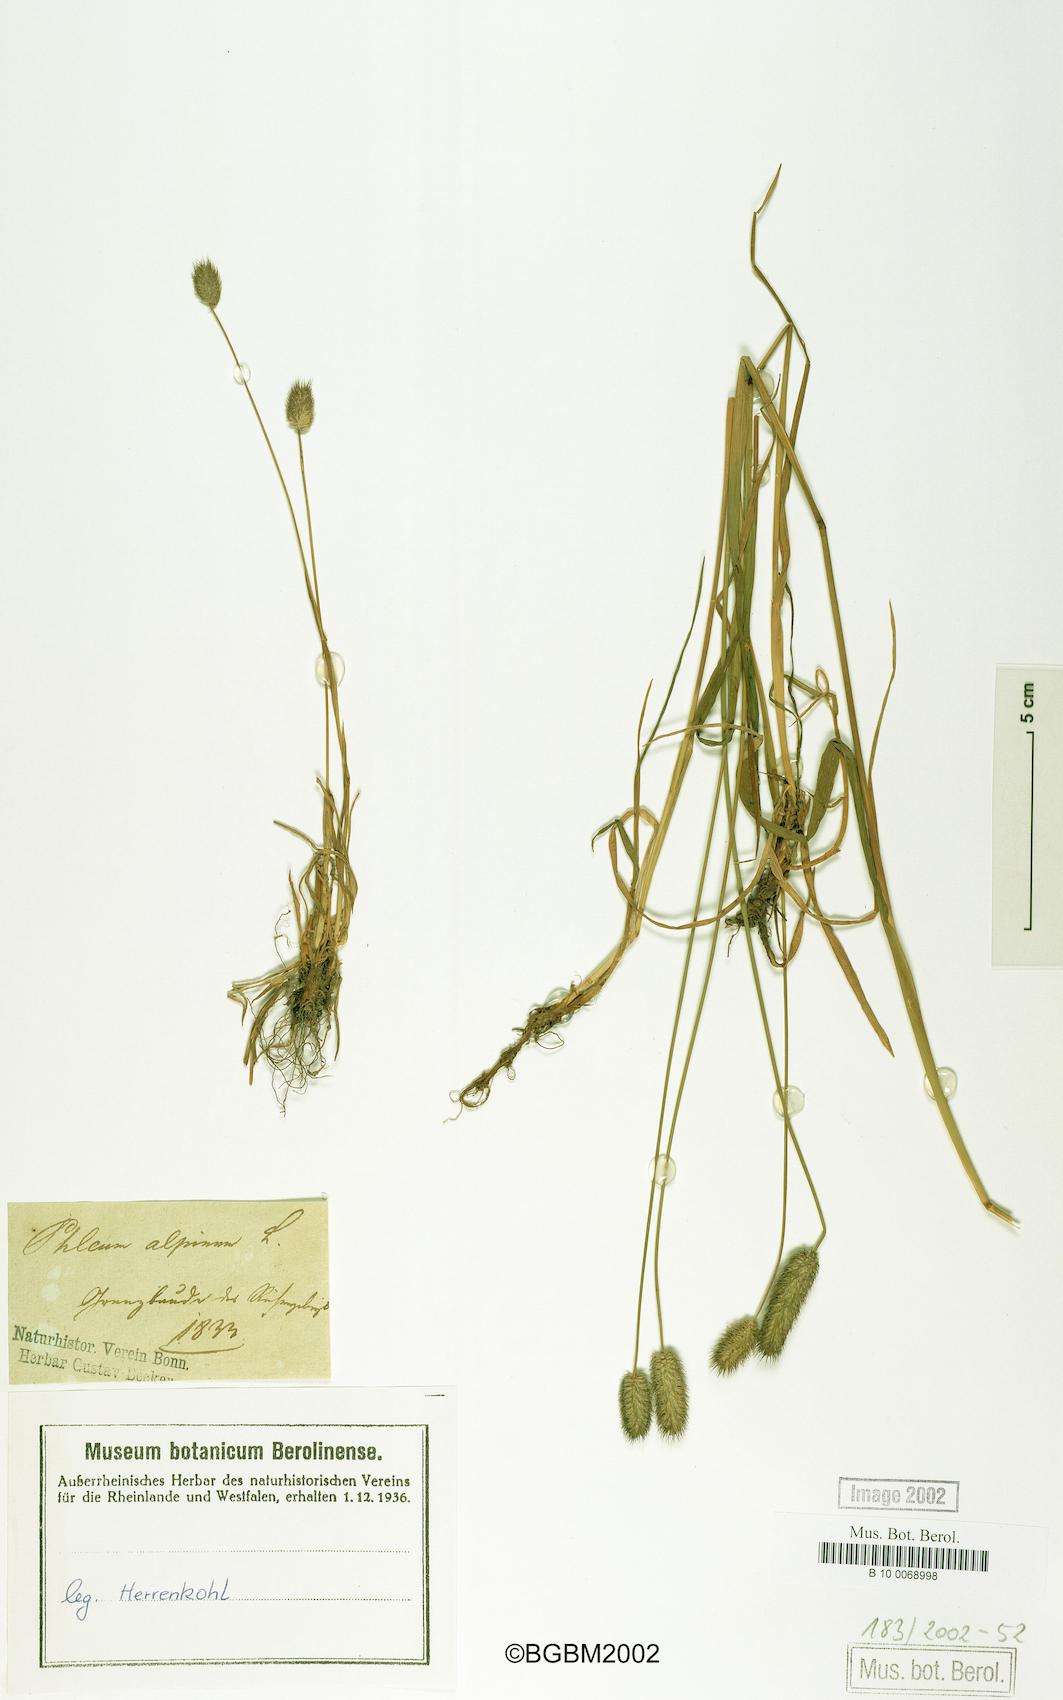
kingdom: Plantae
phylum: Tracheophyta
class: Liliopsida
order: Poales
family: Poaceae
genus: Phleum
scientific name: Phleum alpinum
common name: Alpine cat's-tail
